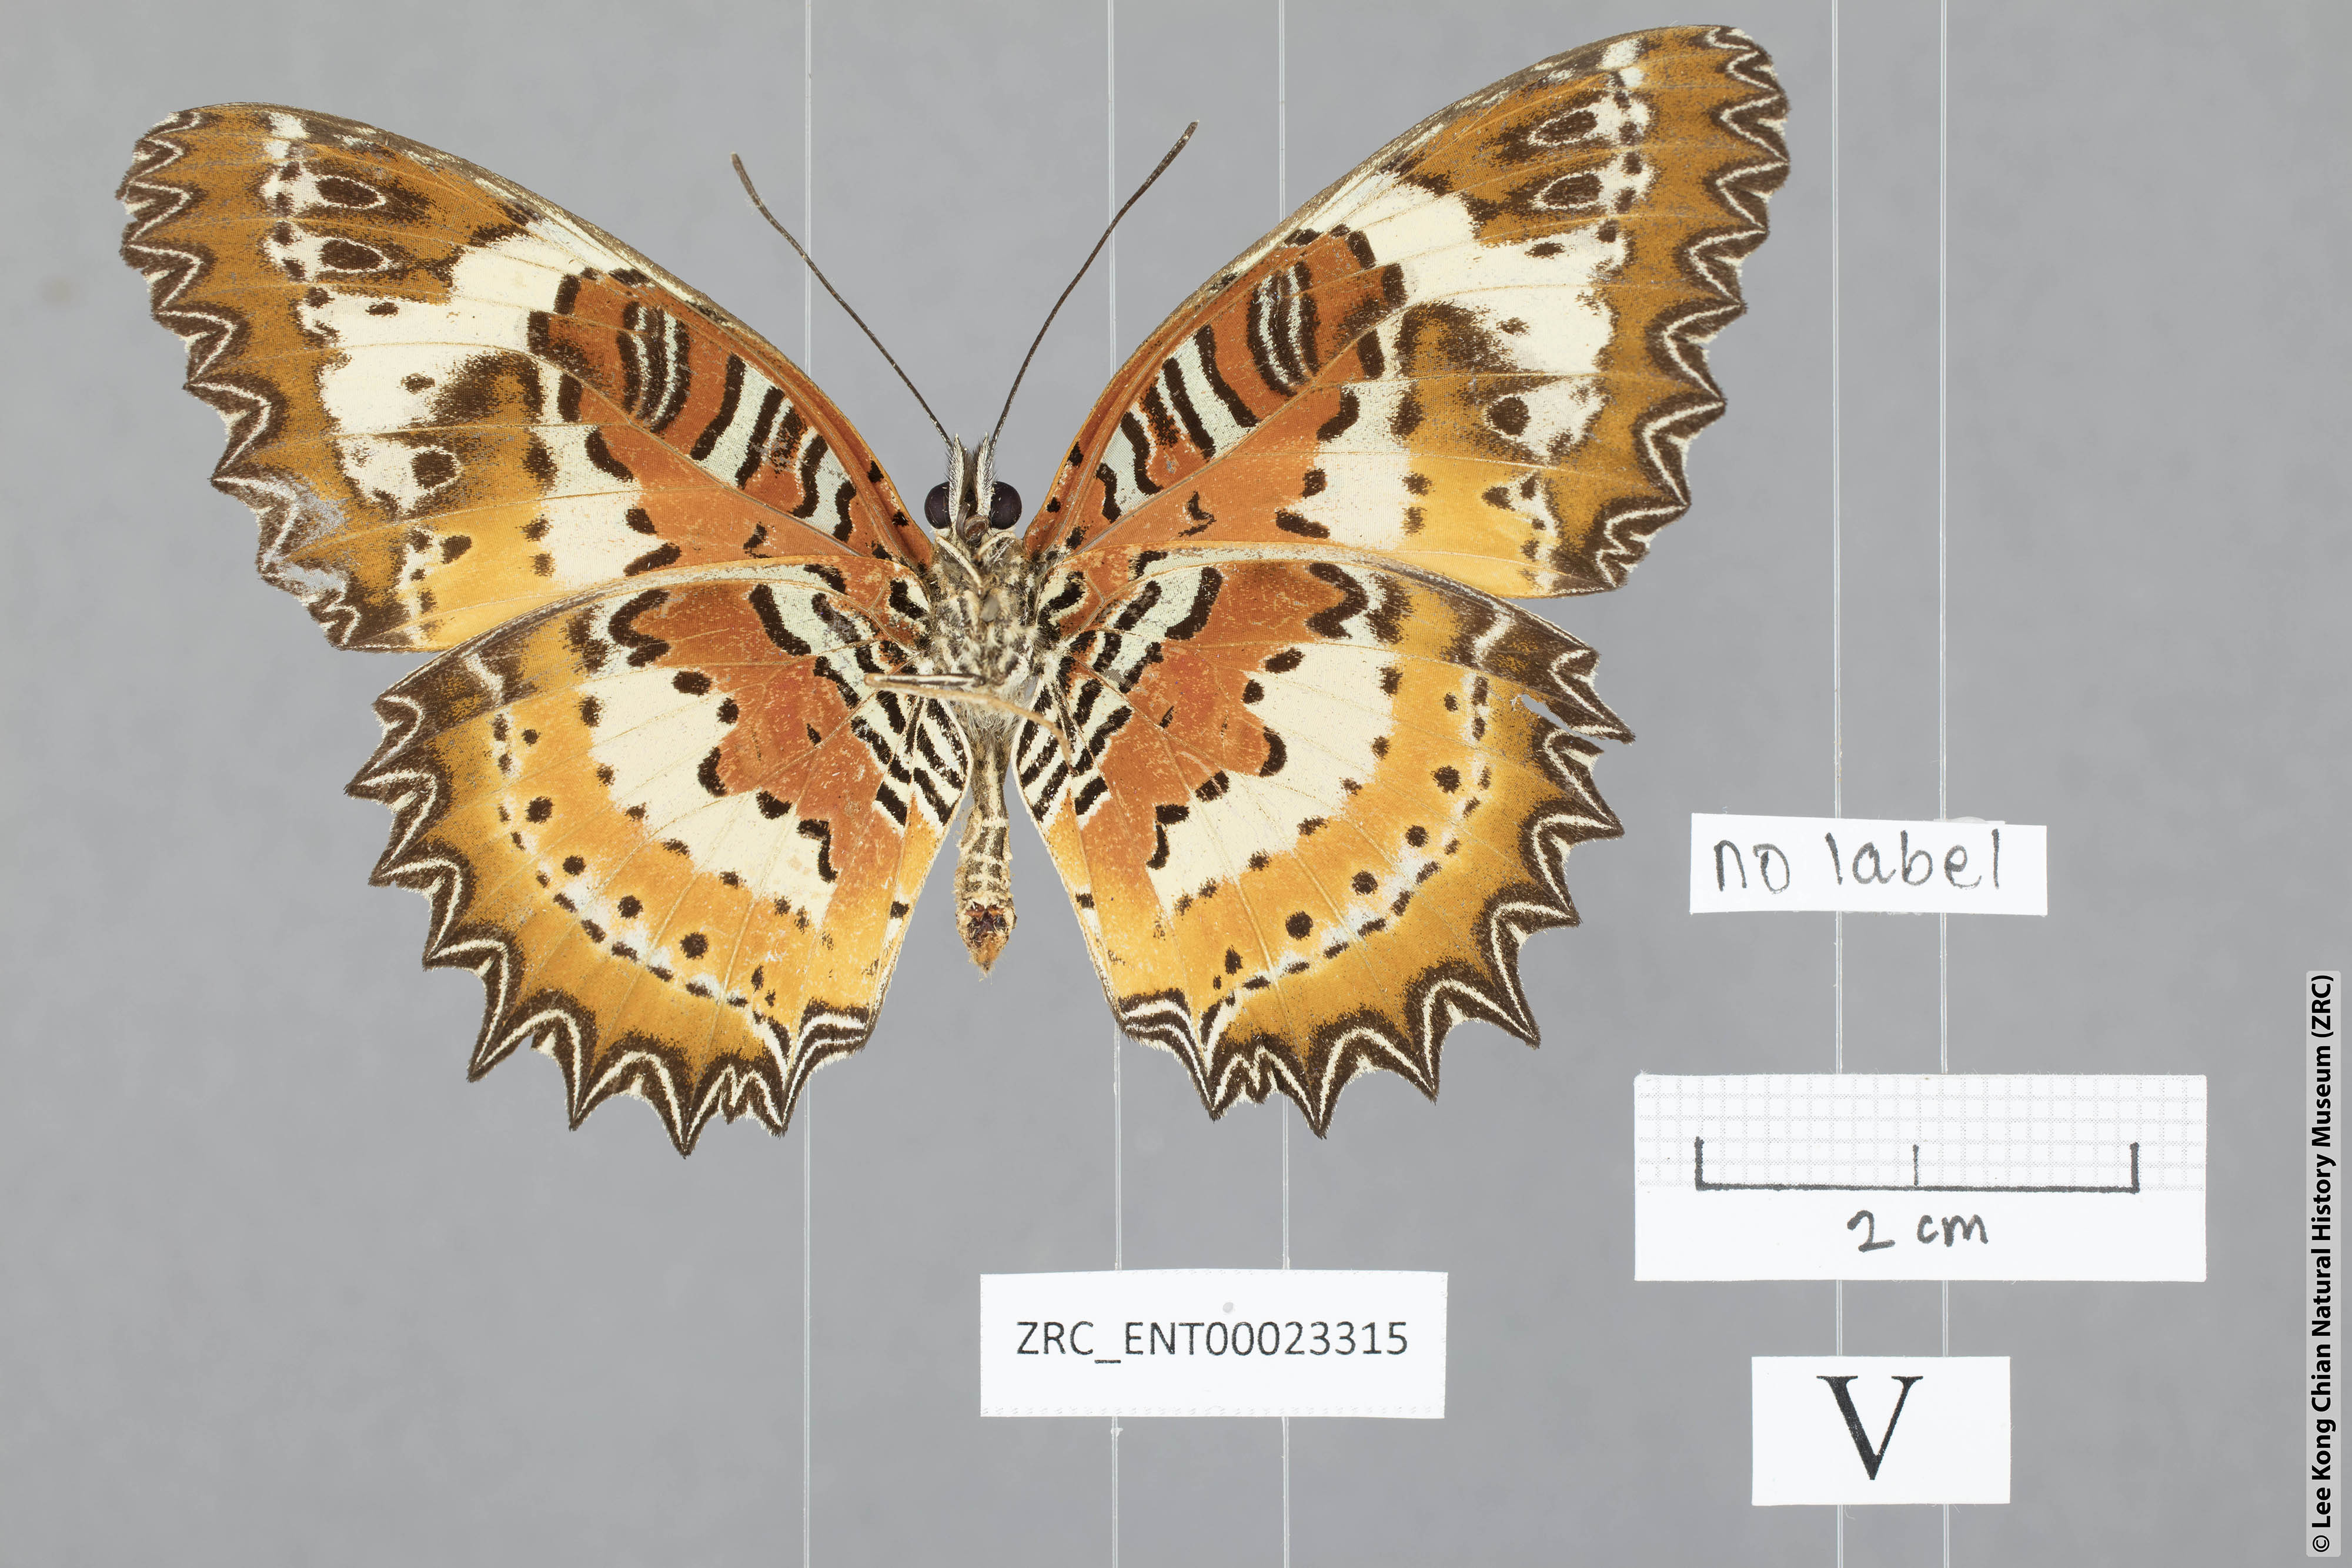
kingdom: Animalia
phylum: Arthropoda
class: Insecta
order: Lepidoptera
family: Nymphalidae
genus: Cethosia
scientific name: Cethosia penthesilea
